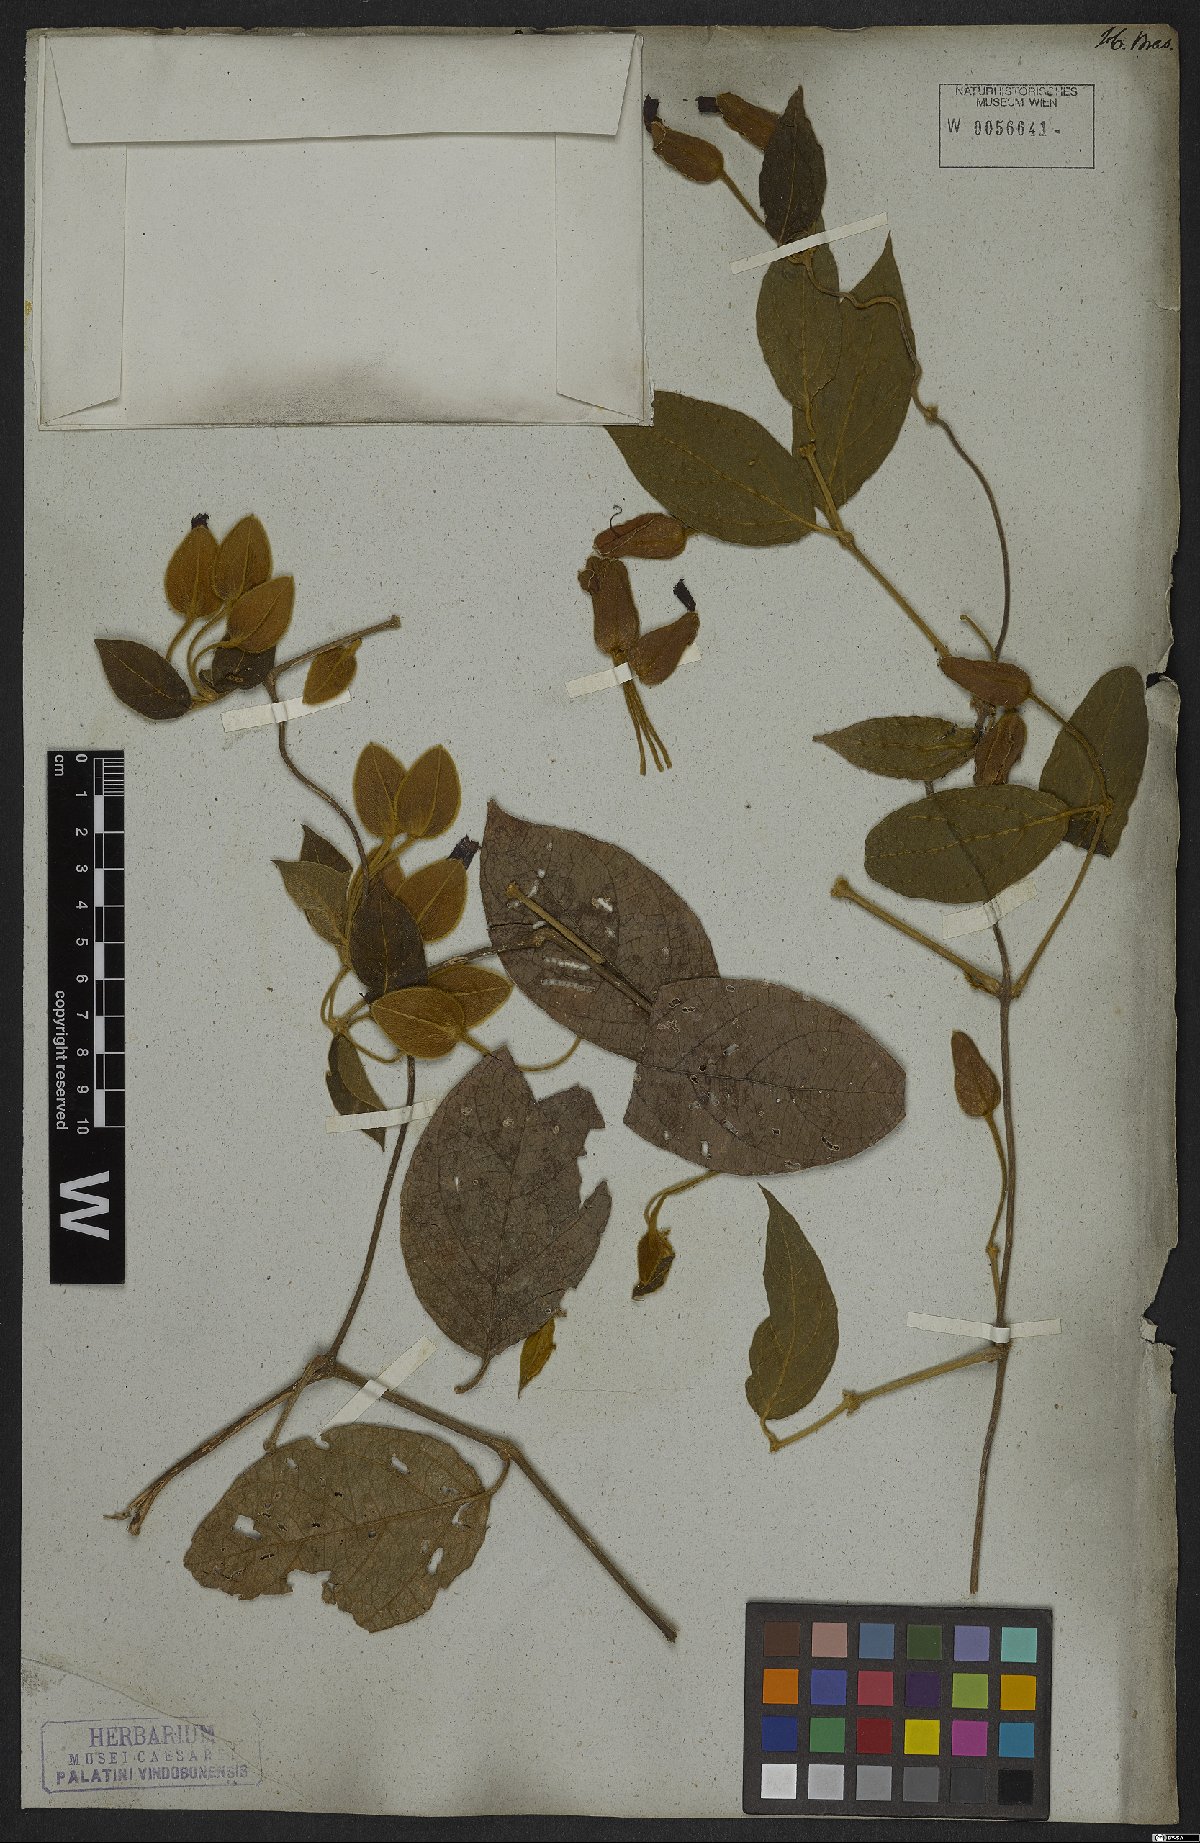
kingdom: Plantae
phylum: Tracheophyta
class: Magnoliopsida
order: Lamiales
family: Acanthaceae
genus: Mendoncia
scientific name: Mendoncia velloziana
